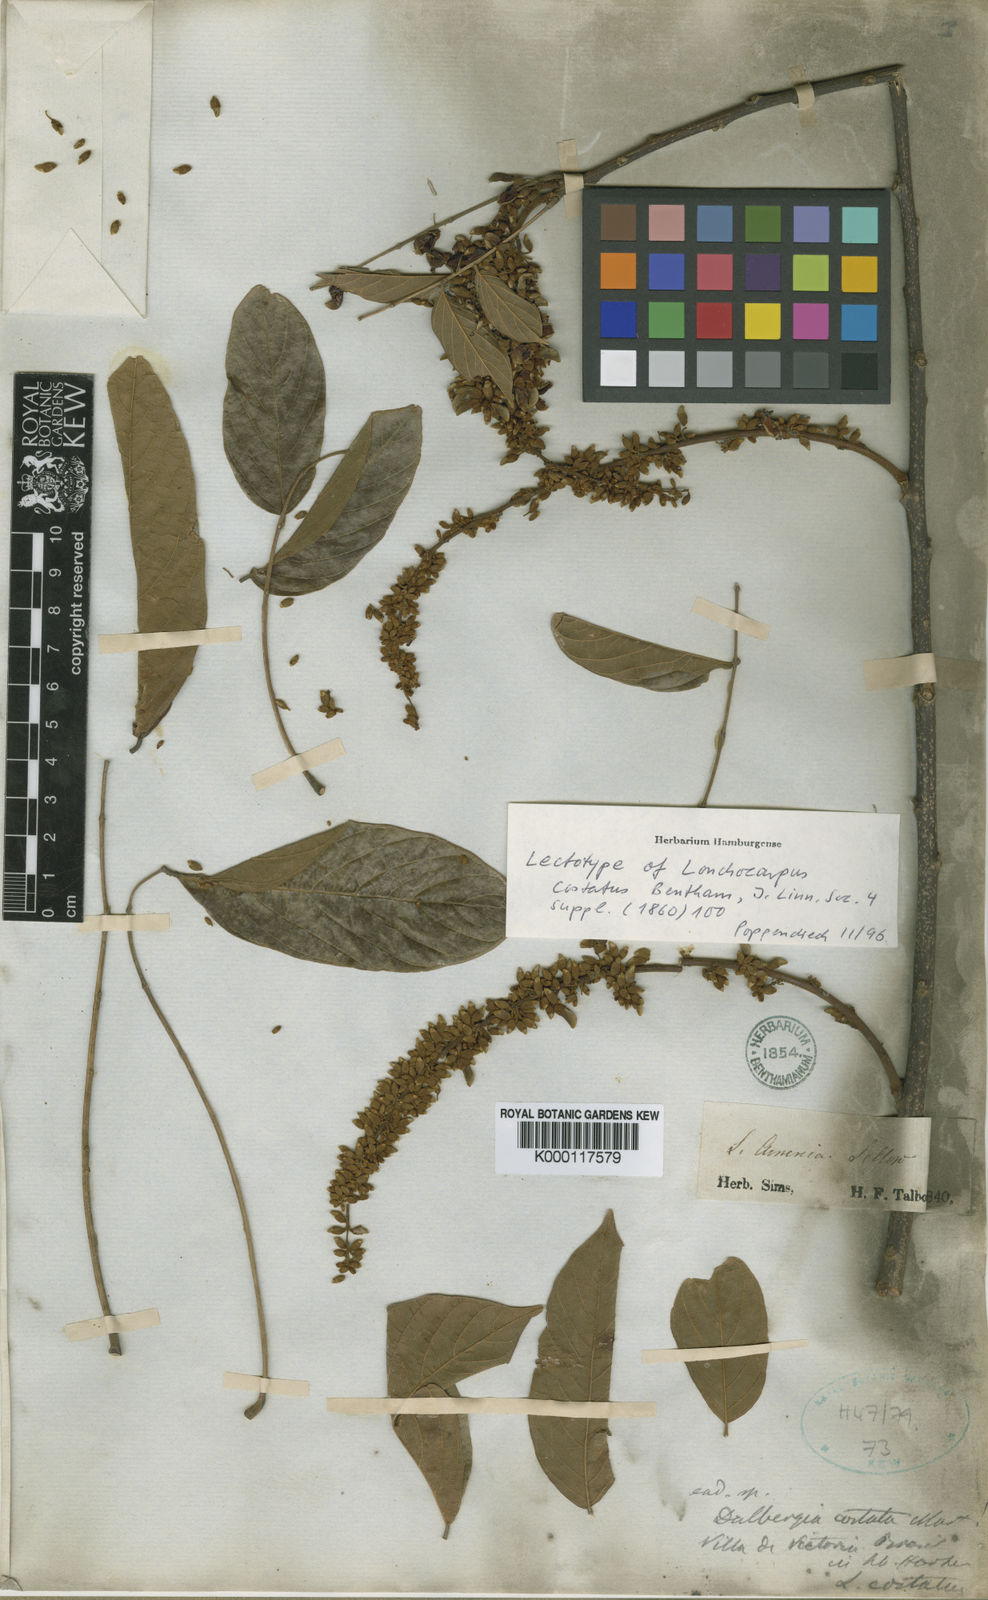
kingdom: Plantae
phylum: Tracheophyta
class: Magnoliopsida
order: Fabales
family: Fabaceae
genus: Deguelia
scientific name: Deguelia costata
